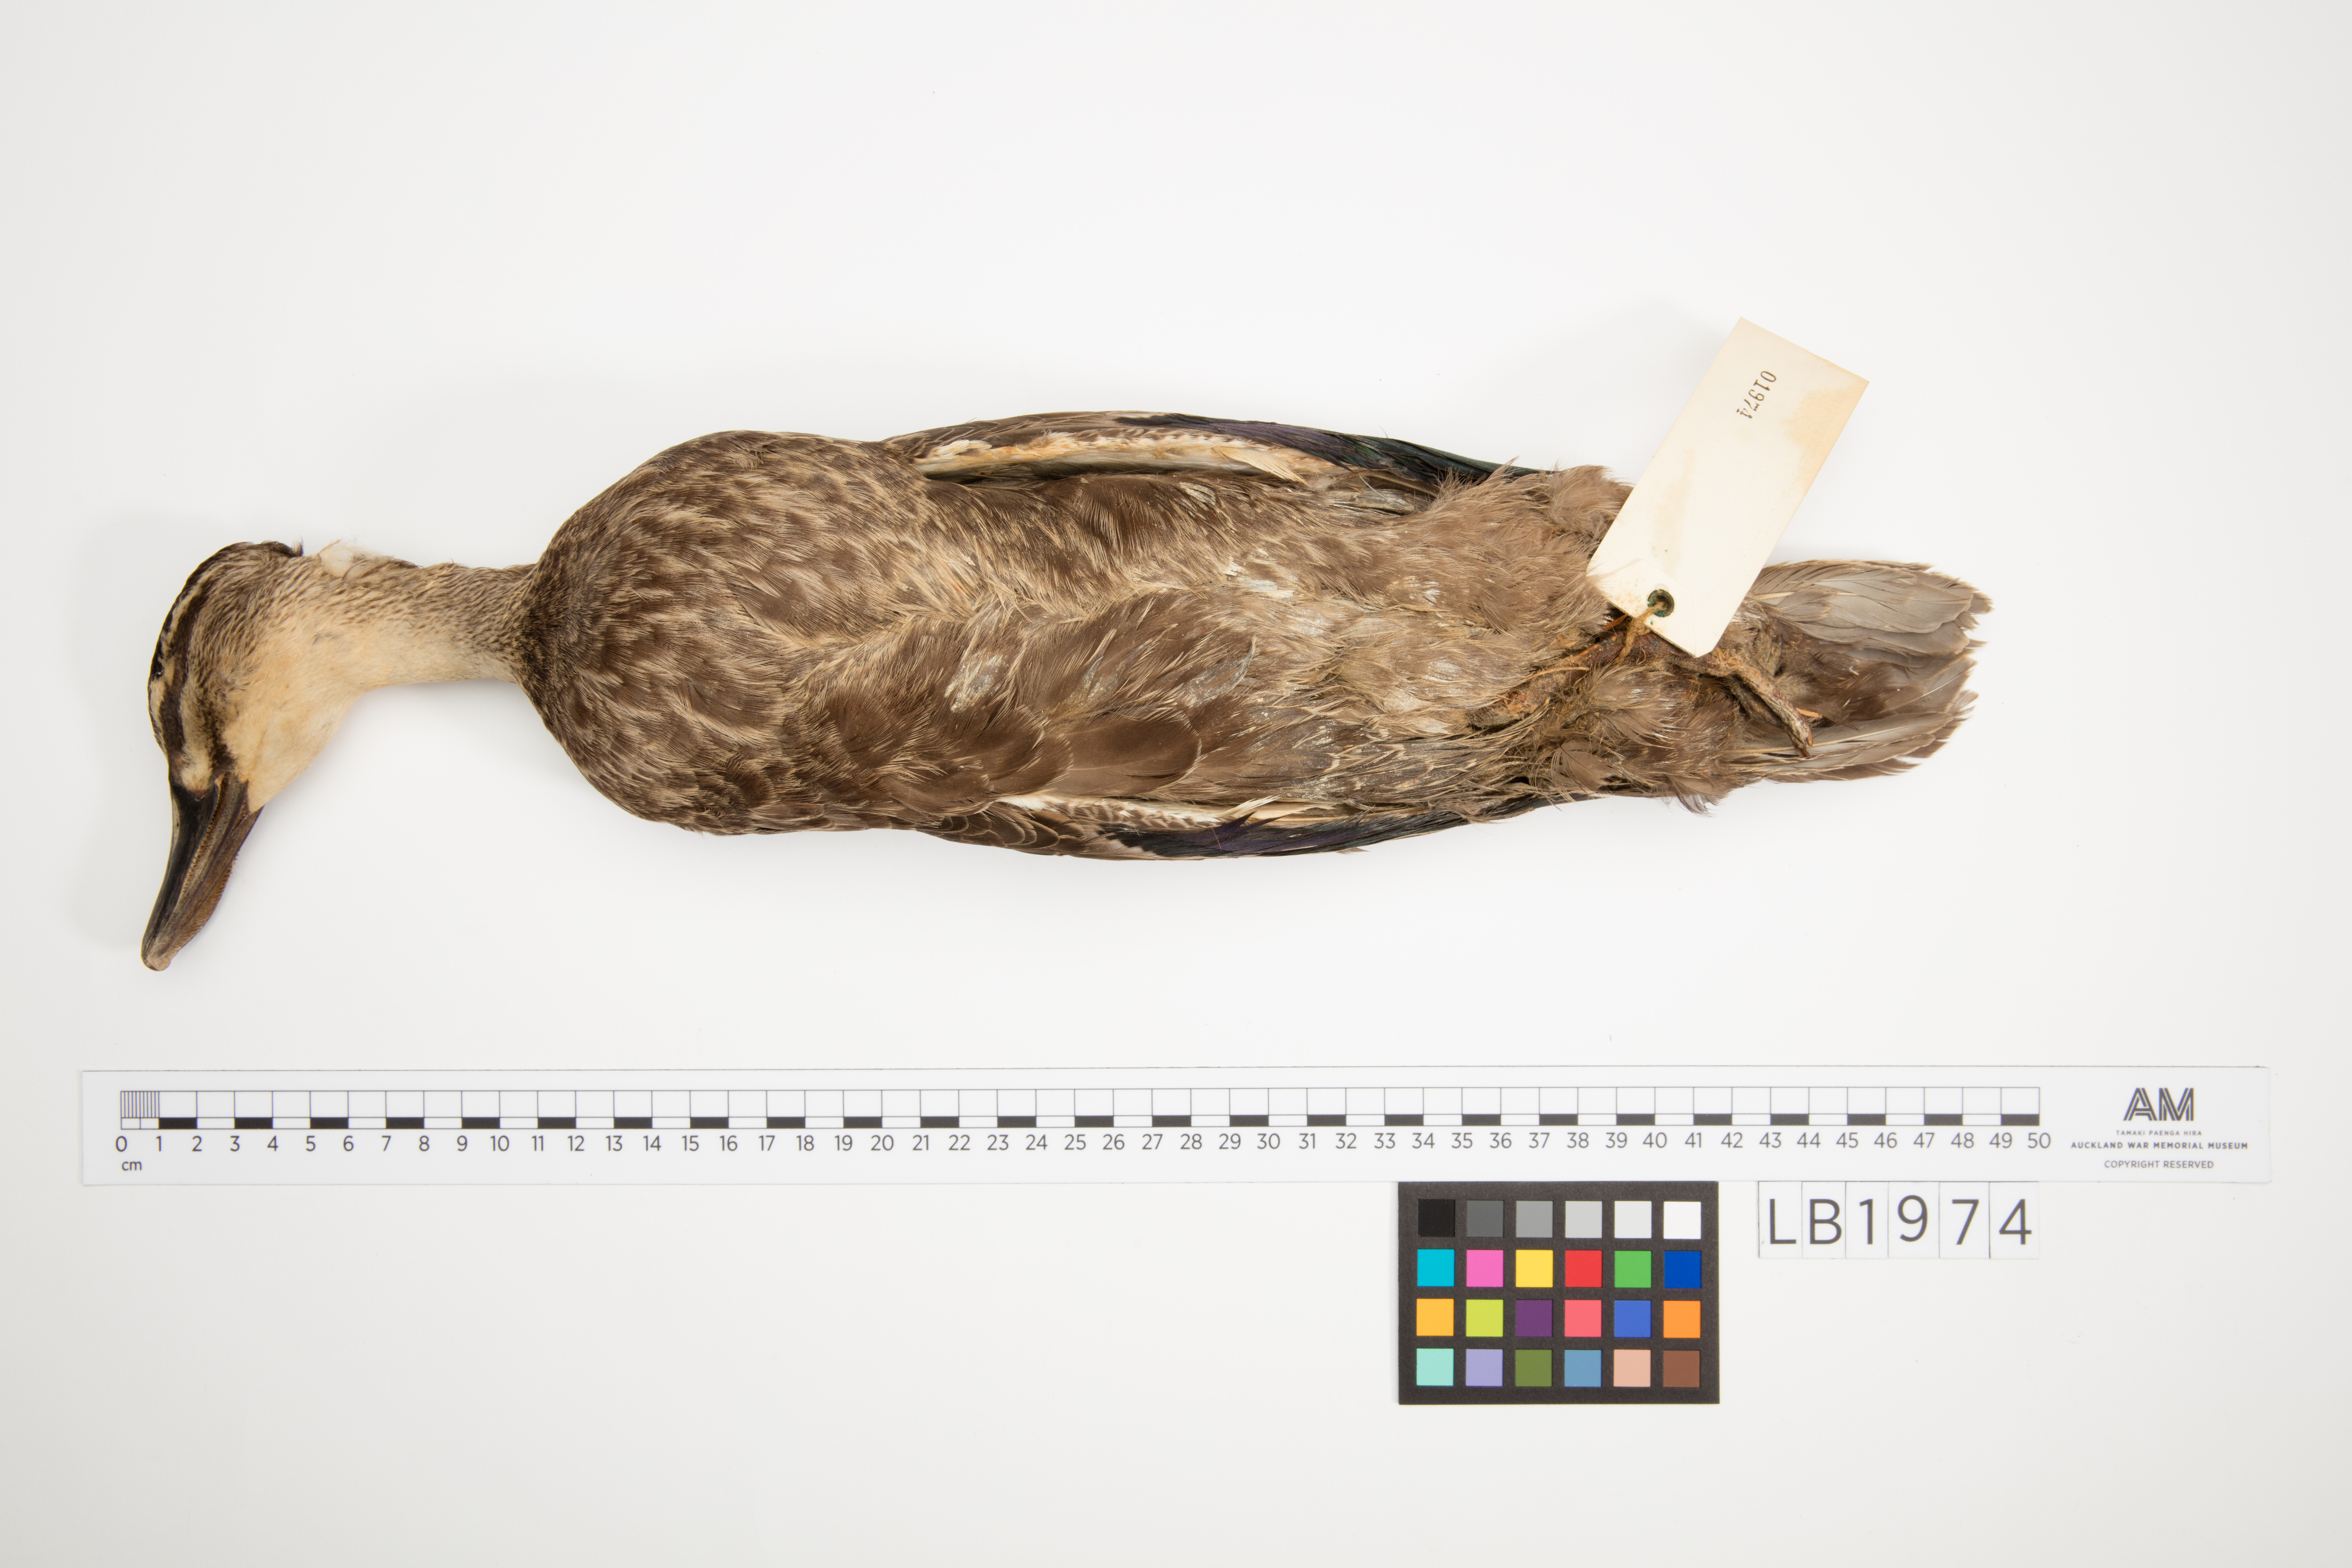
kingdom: Animalia
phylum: Chordata
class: Aves
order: Anseriformes
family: Anatidae
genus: Anas
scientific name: Anas superciliosa
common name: Pacific black duck
